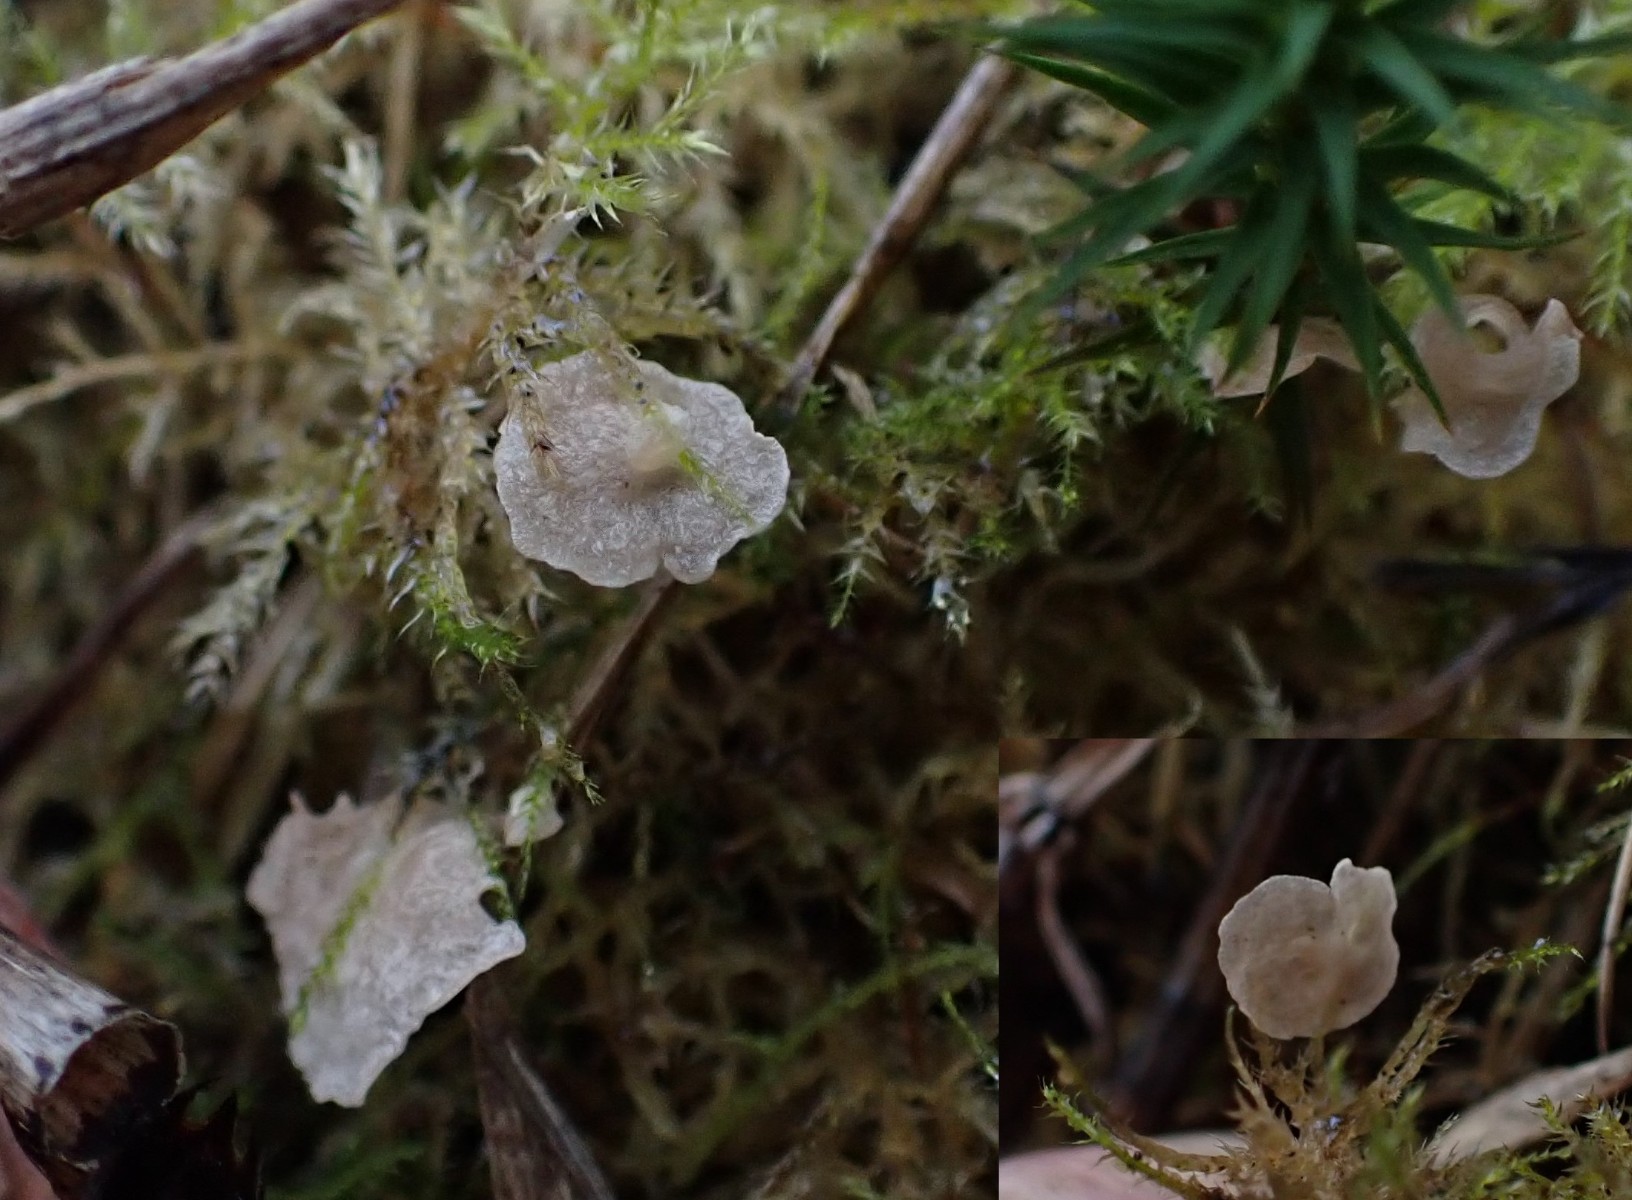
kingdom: Fungi
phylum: Basidiomycota
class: Agaricomycetes
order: Agaricales
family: Hygrophoraceae
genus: Arrhenia
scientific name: Arrhenia retiruga
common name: lille fontænehat
